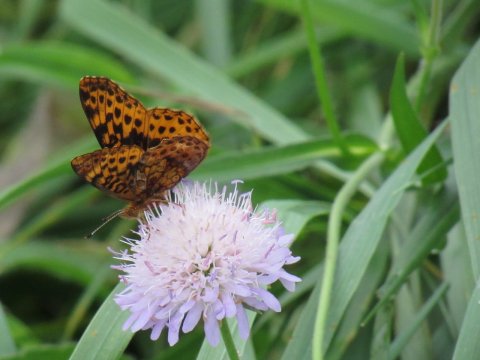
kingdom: Animalia
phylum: Arthropoda
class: Insecta
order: Lepidoptera
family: Nymphalidae
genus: Clossiana
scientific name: Clossiana toddi
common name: Meadow Fritillary
